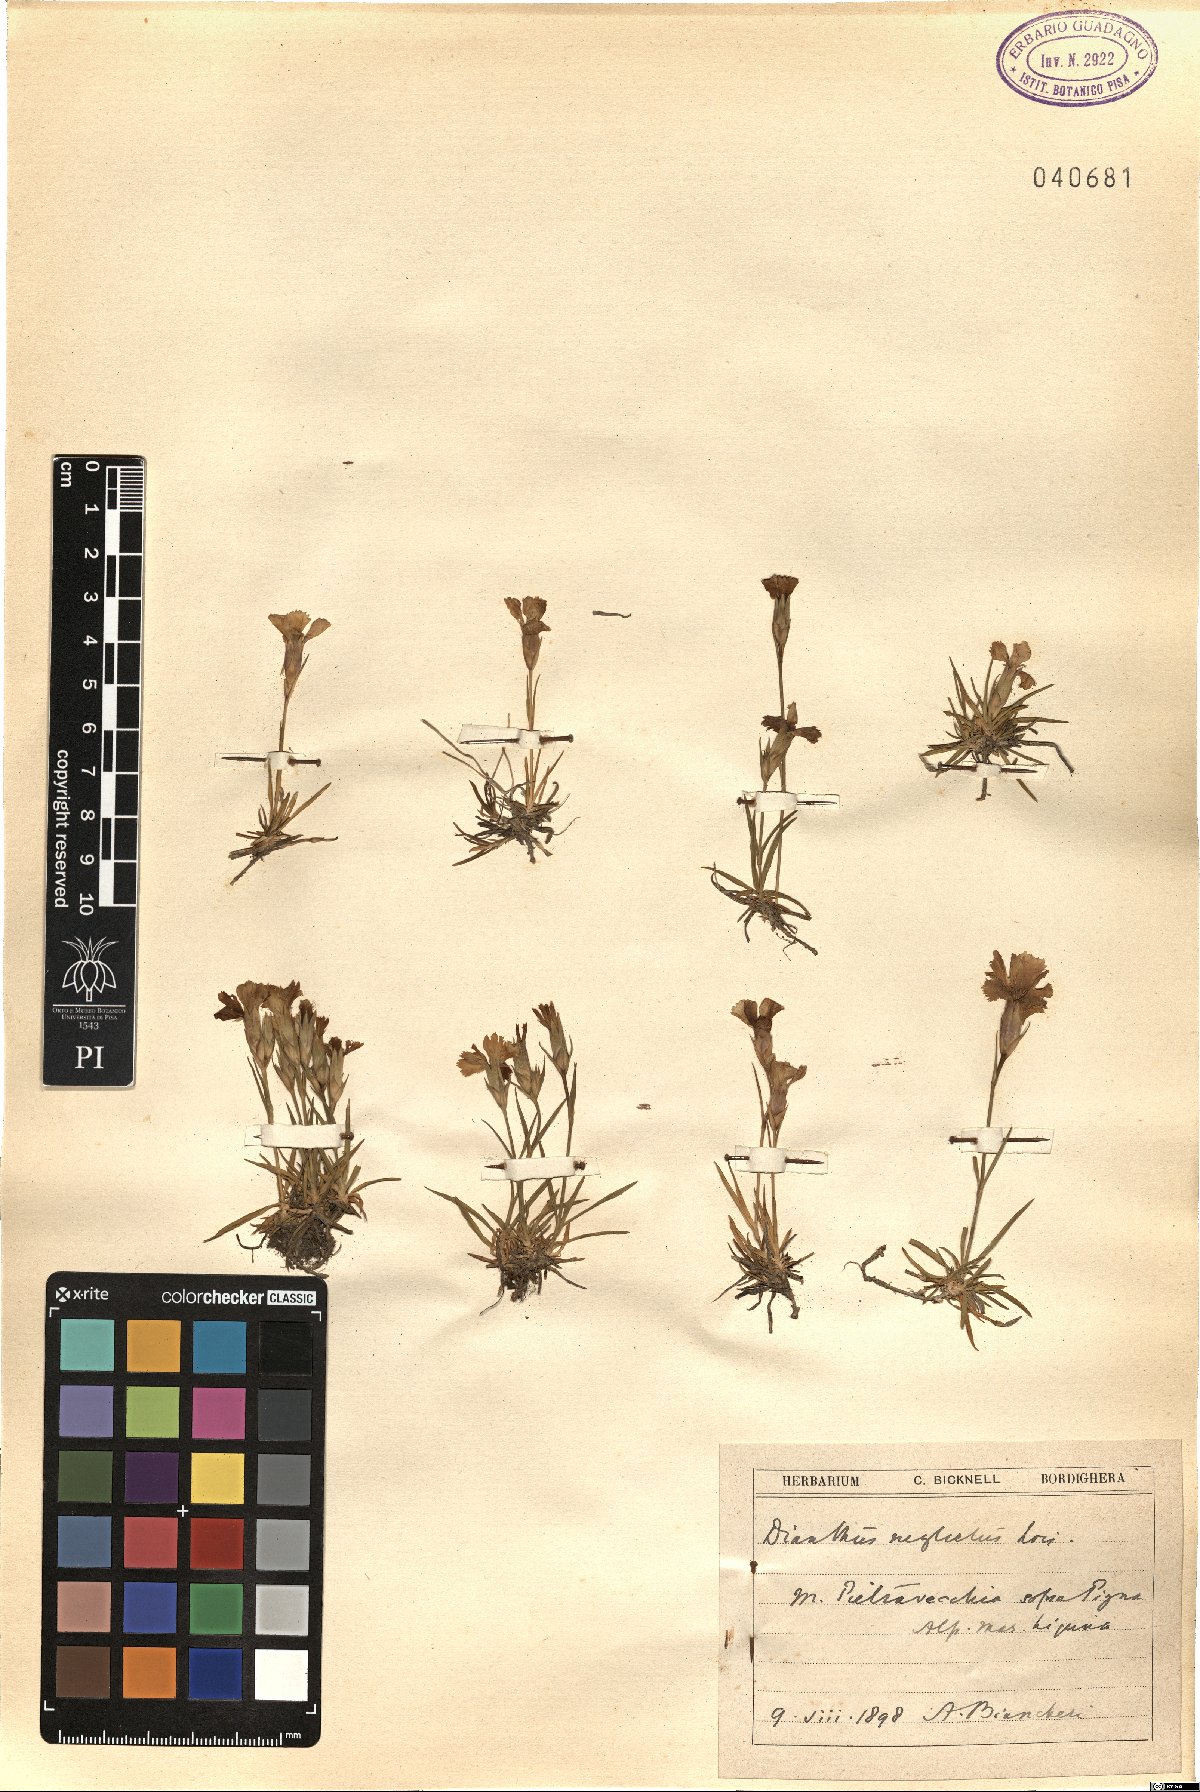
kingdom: Plantae
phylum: Tracheophyta
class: Magnoliopsida
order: Caryophyllales
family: Caryophyllaceae
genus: Dianthus
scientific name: Dianthus seguieri
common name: Ragged pink
